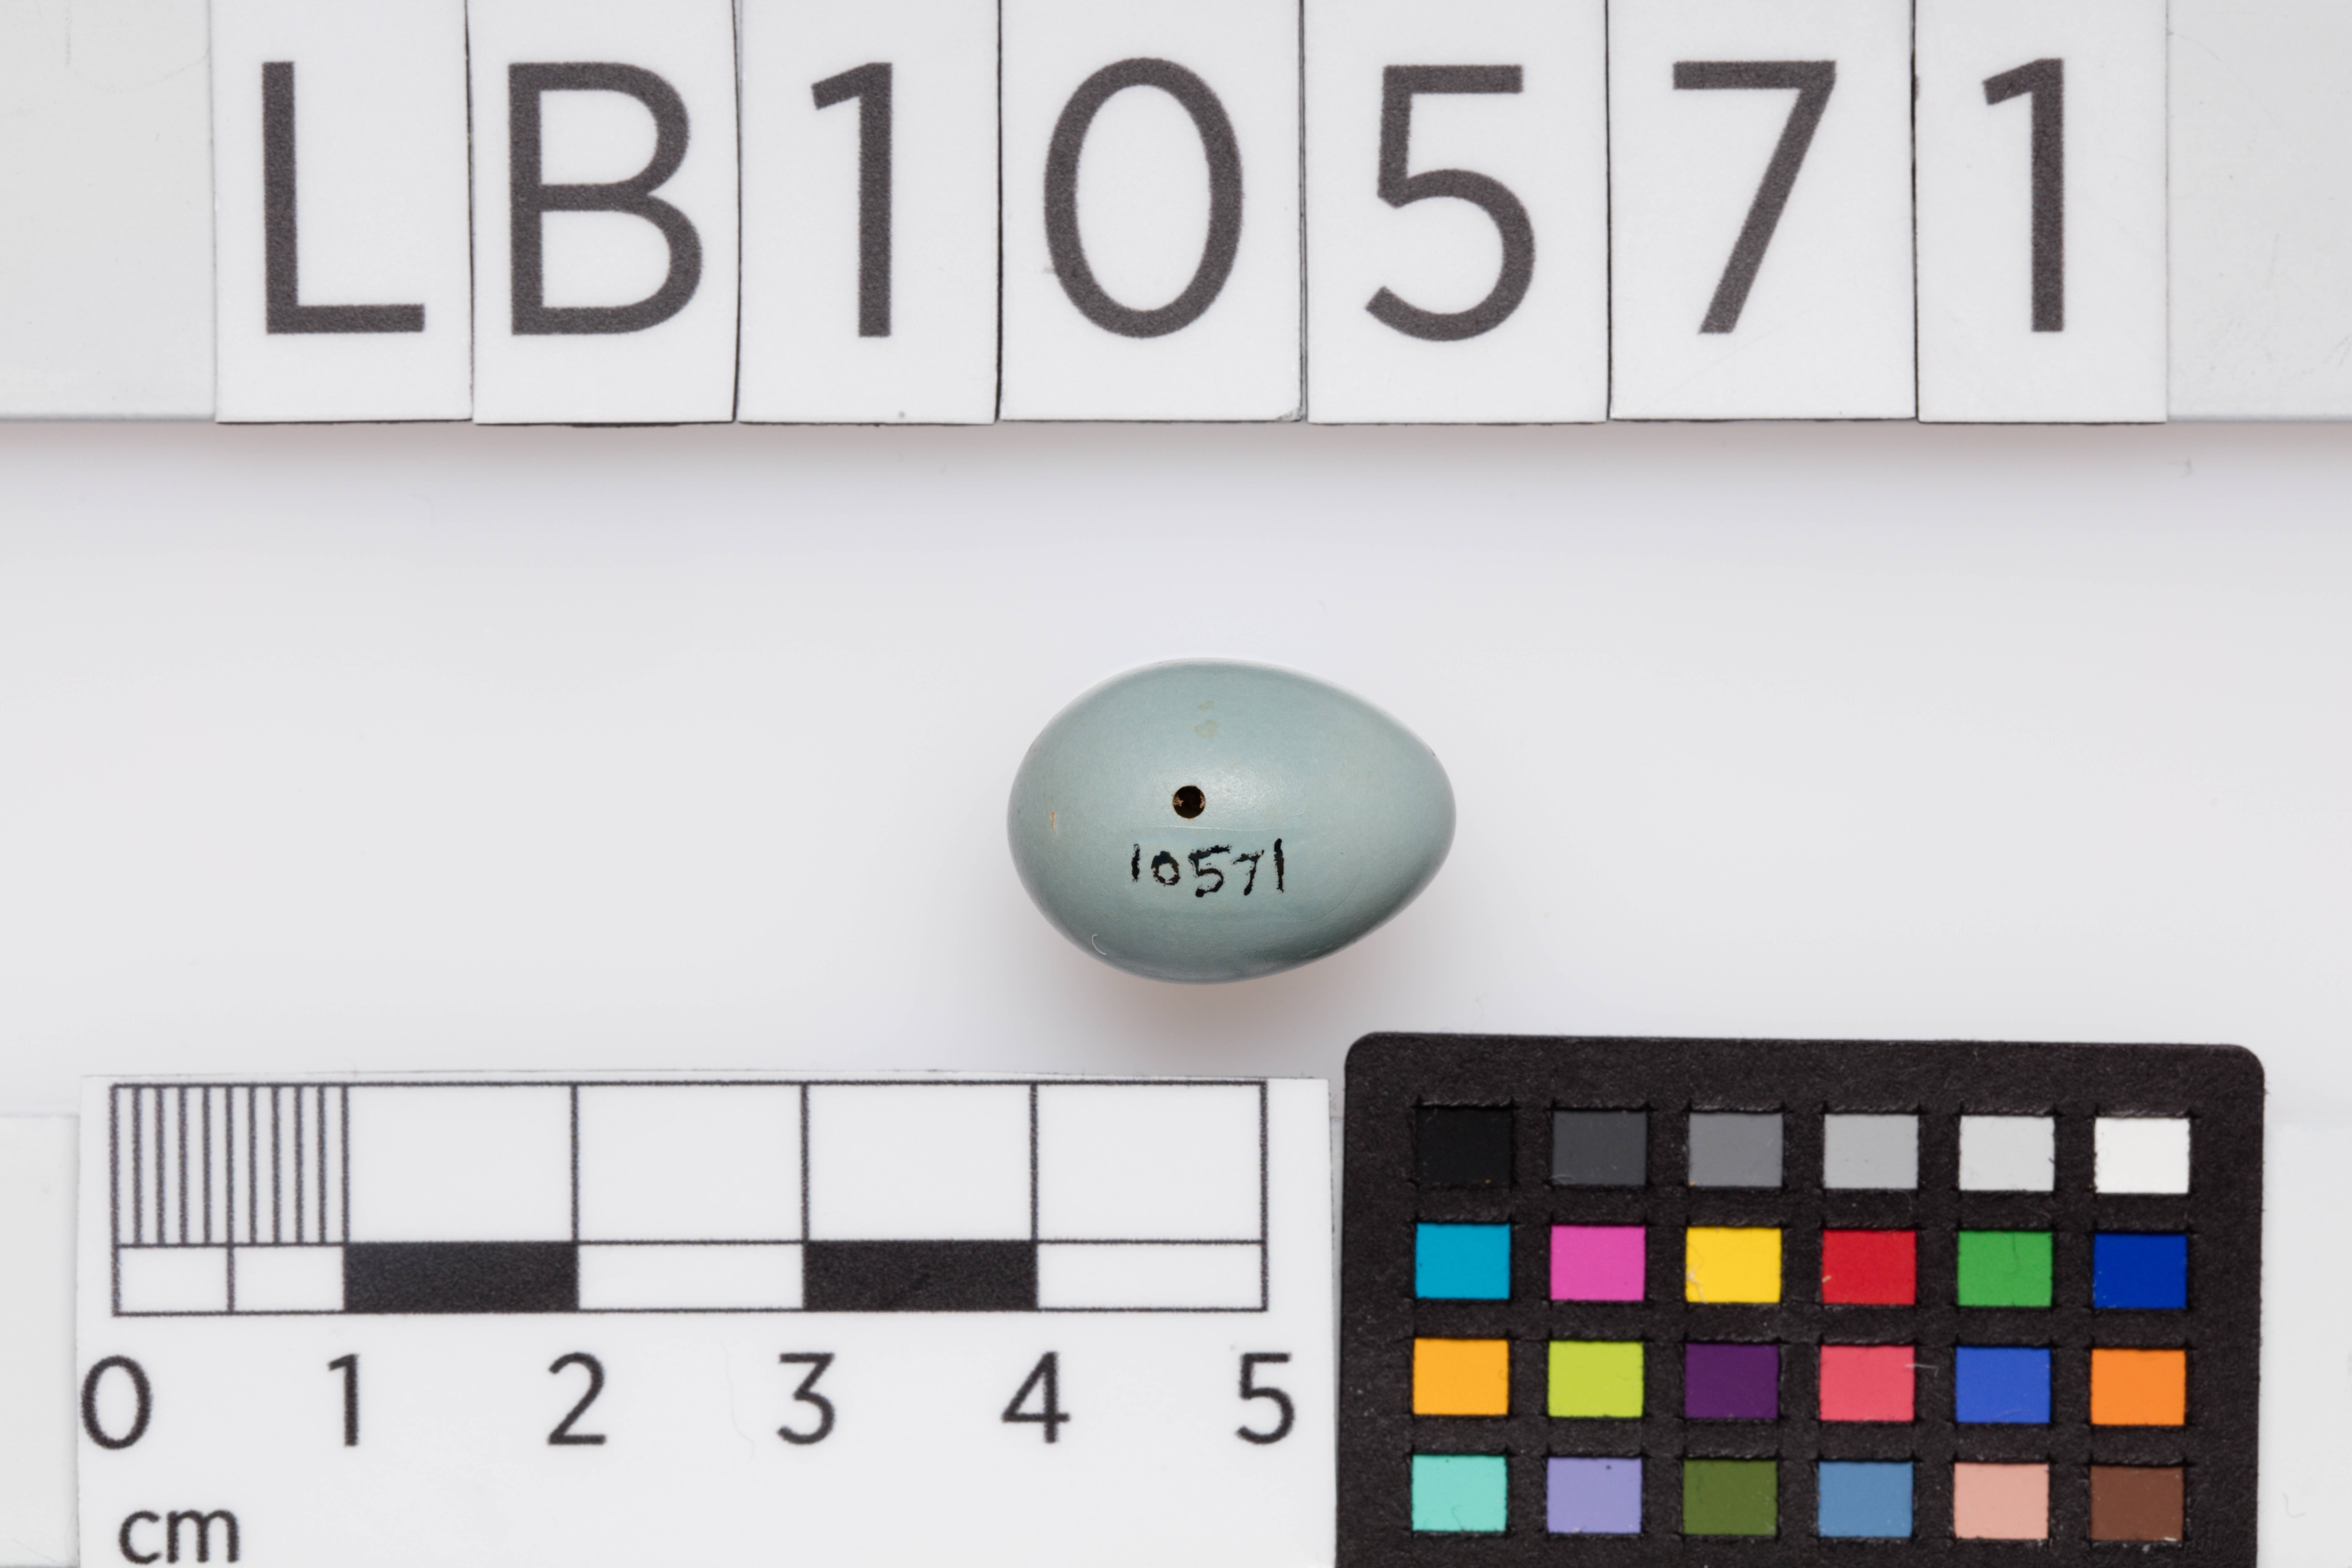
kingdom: Animalia
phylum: Chordata
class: Aves
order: Passeriformes
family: Muscicapidae
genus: Saxicola
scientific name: Saxicola rubetra
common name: Whinchat
